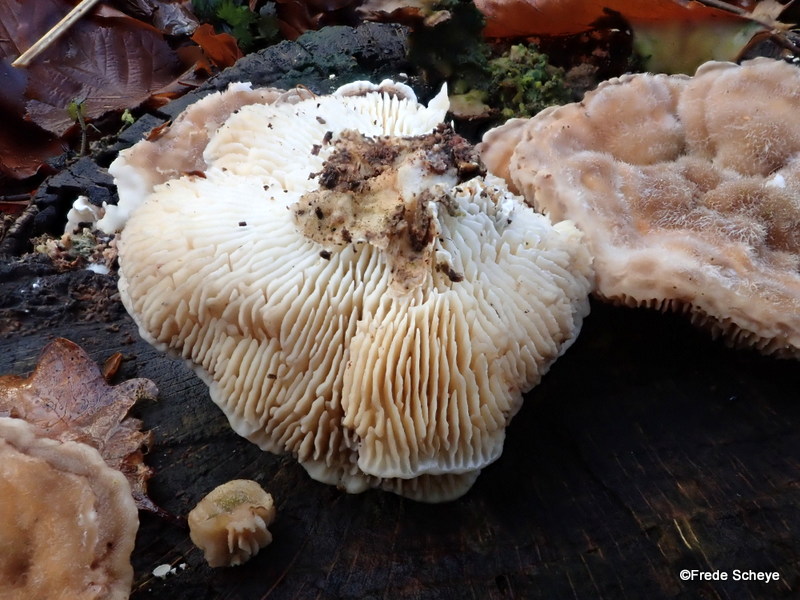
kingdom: Fungi
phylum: Basidiomycota
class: Agaricomycetes
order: Polyporales
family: Polyporaceae
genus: Lenzites
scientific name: Lenzites betulinus
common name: birke-læderporesvamp
